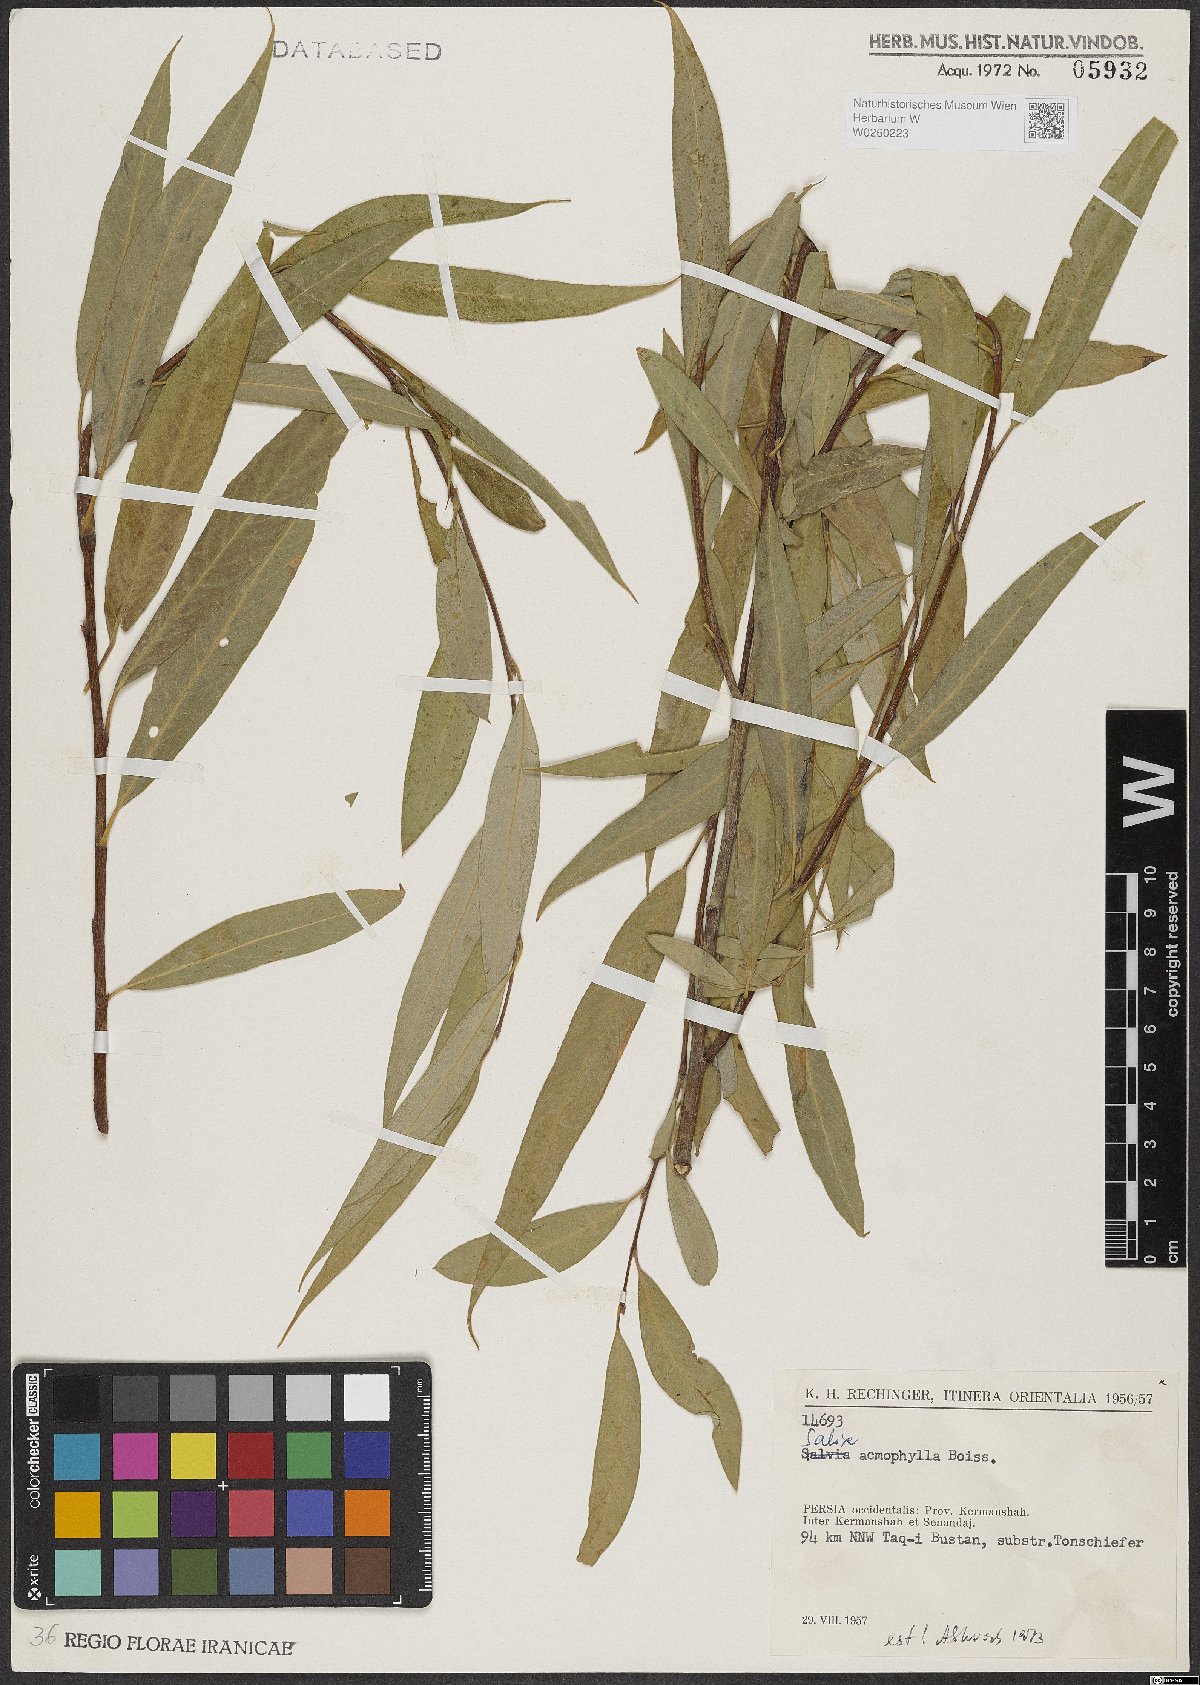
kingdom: Plantae
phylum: Tracheophyta
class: Magnoliopsida
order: Malpighiales
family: Salicaceae
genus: Salix
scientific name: Salix acmophylla
